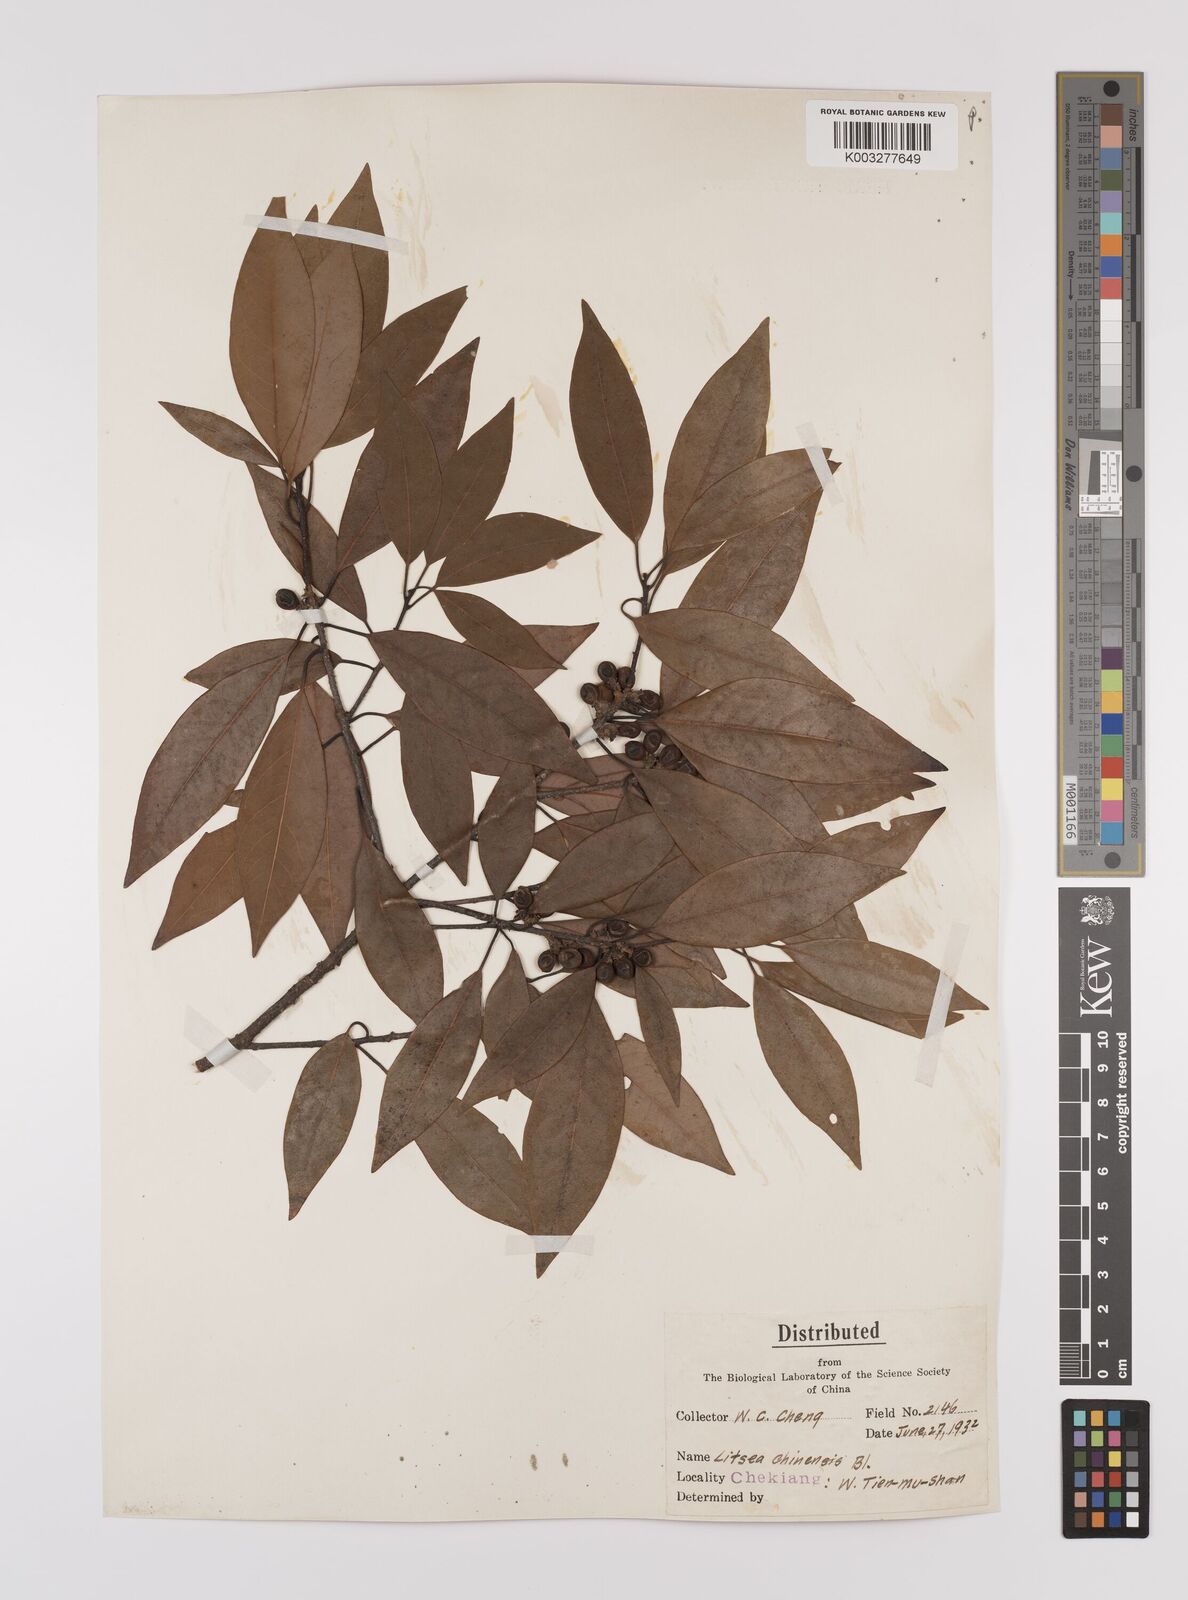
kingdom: Plantae
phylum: Tracheophyta
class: Magnoliopsida
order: Laurales
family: Lauraceae
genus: Litsea
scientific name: Litsea rotundifolia
